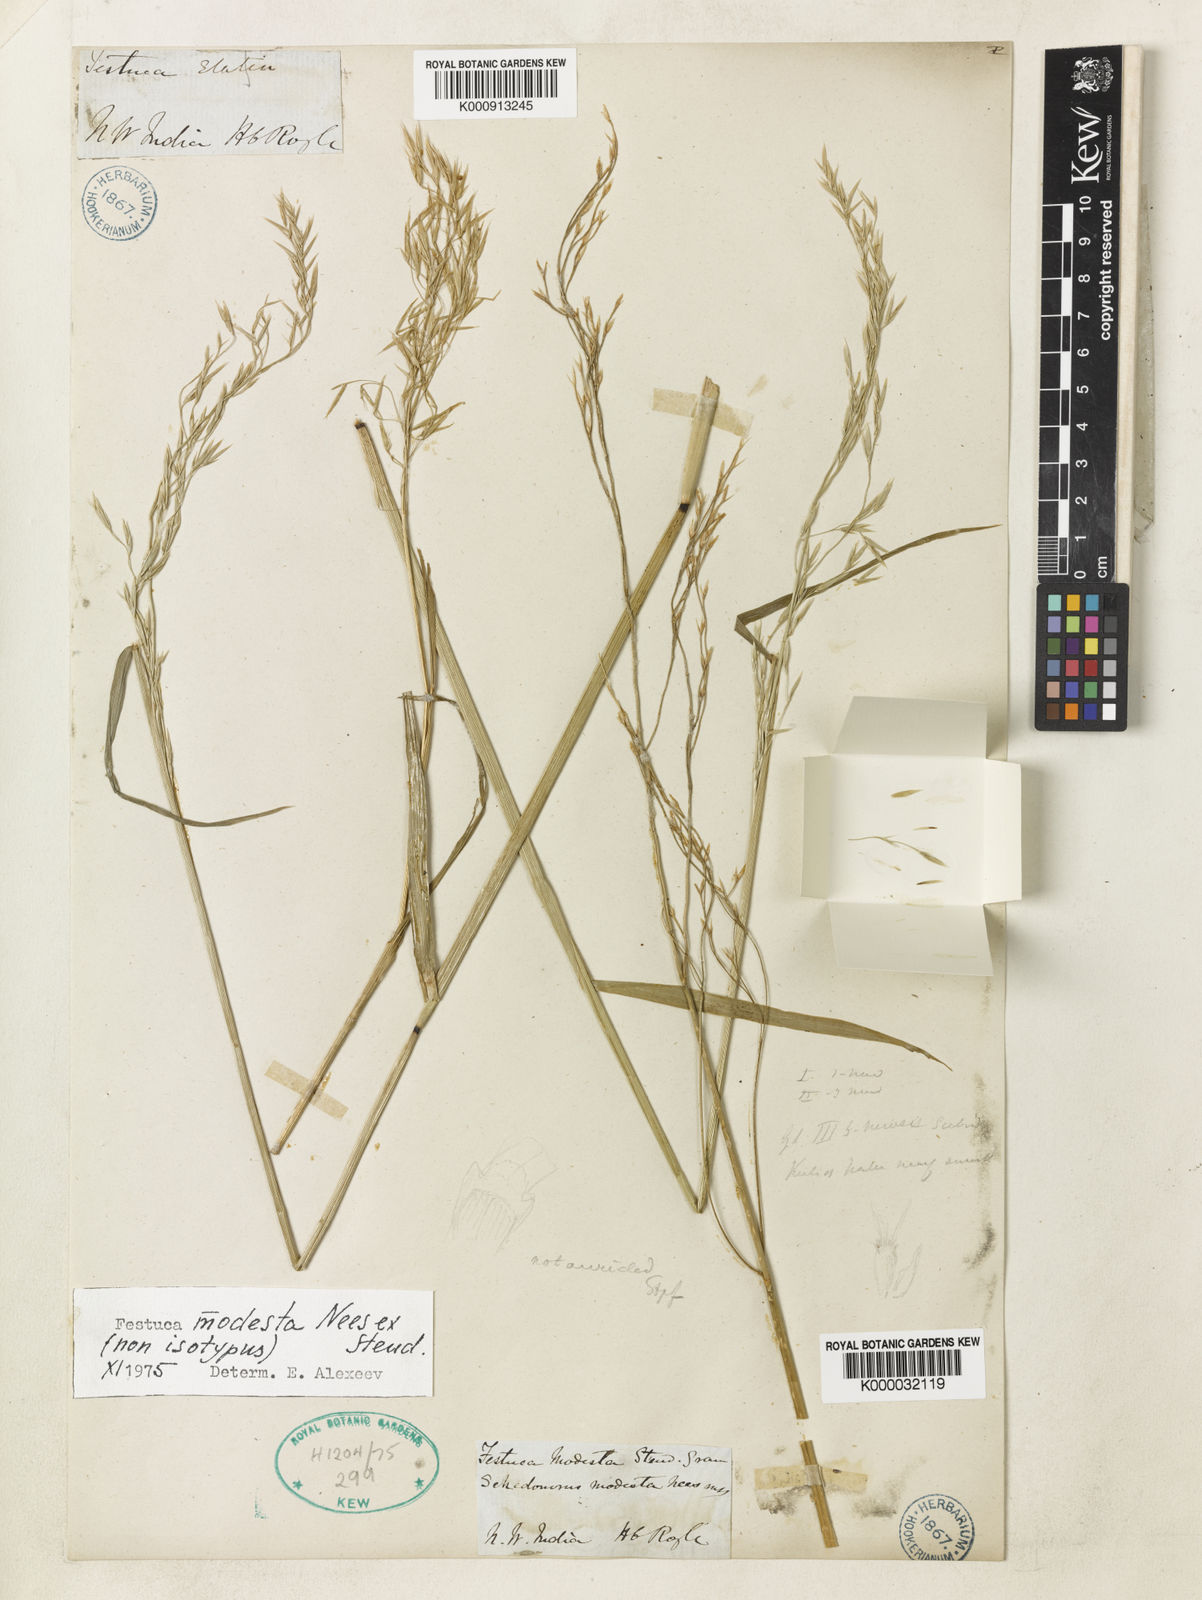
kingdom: Plantae
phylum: Tracheophyta
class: Liliopsida
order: Poales
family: Poaceae
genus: Festuca
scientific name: Festuca modesta
